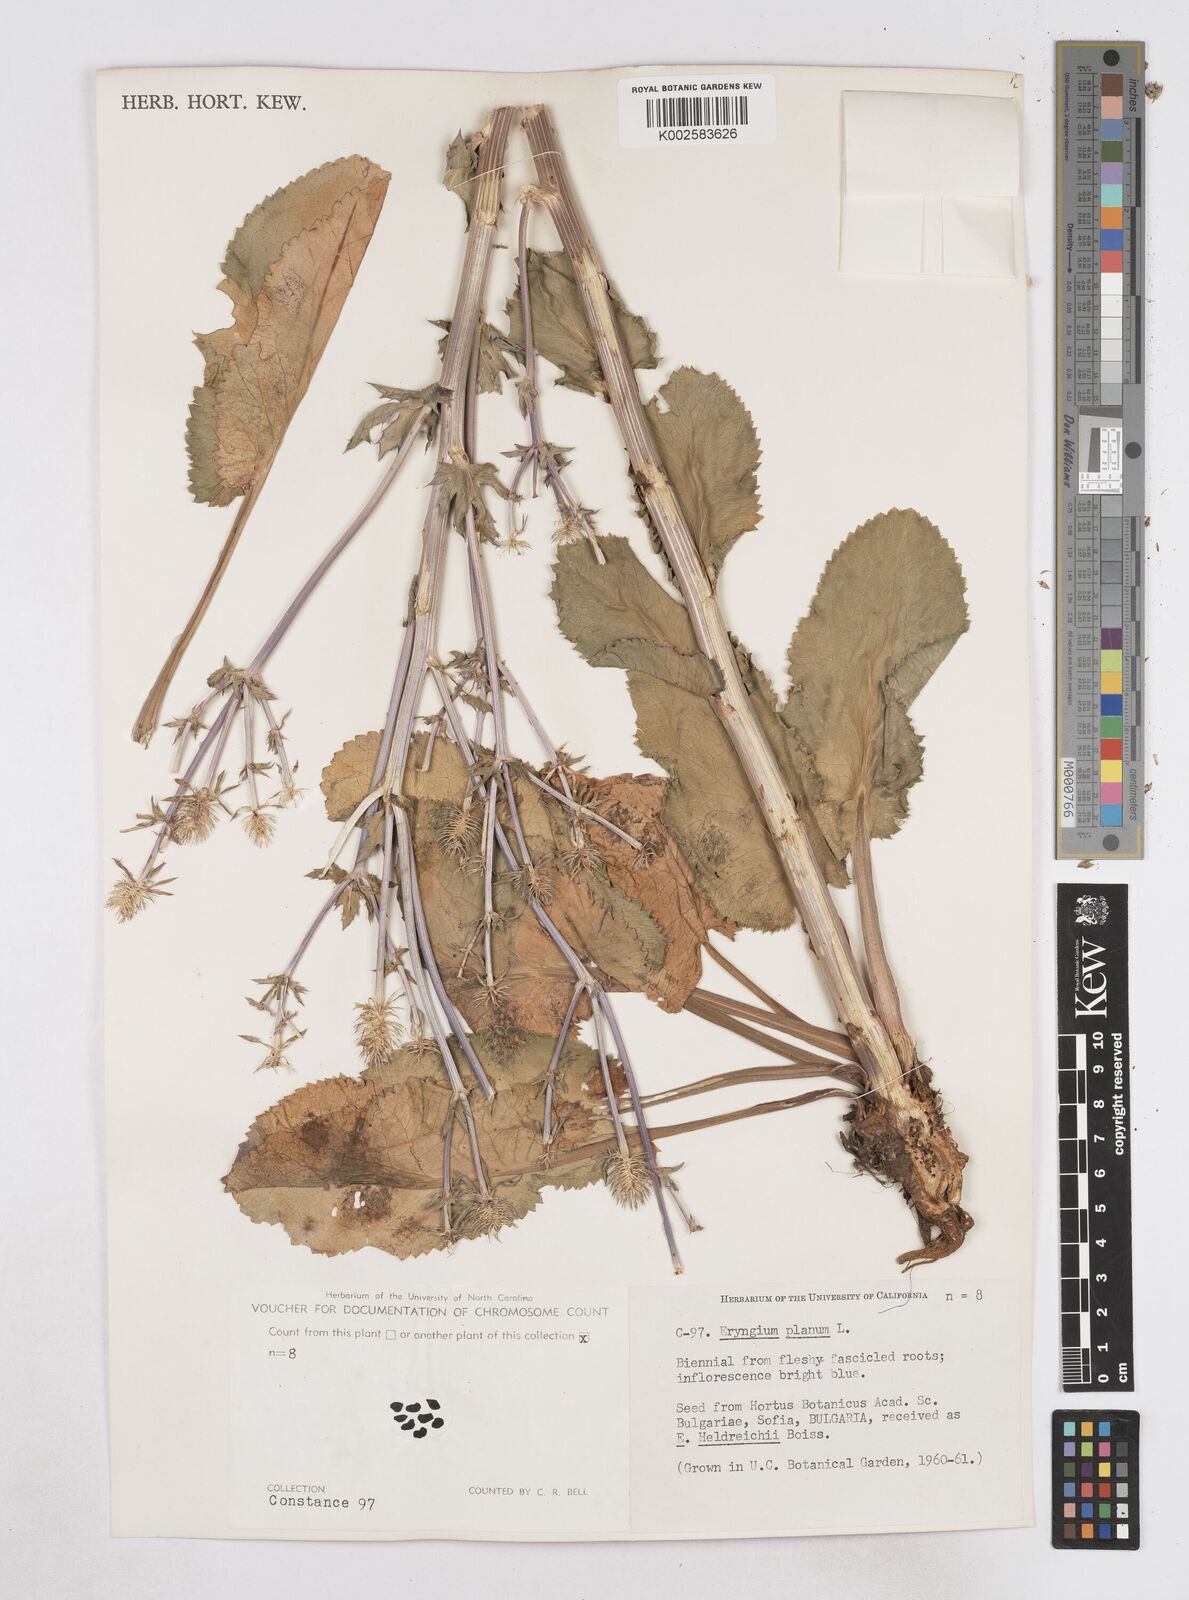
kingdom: Plantae
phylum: Tracheophyta
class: Magnoliopsida
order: Apiales
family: Apiaceae
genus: Eryngium
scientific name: Eryngium planum
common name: Blue eryngo
